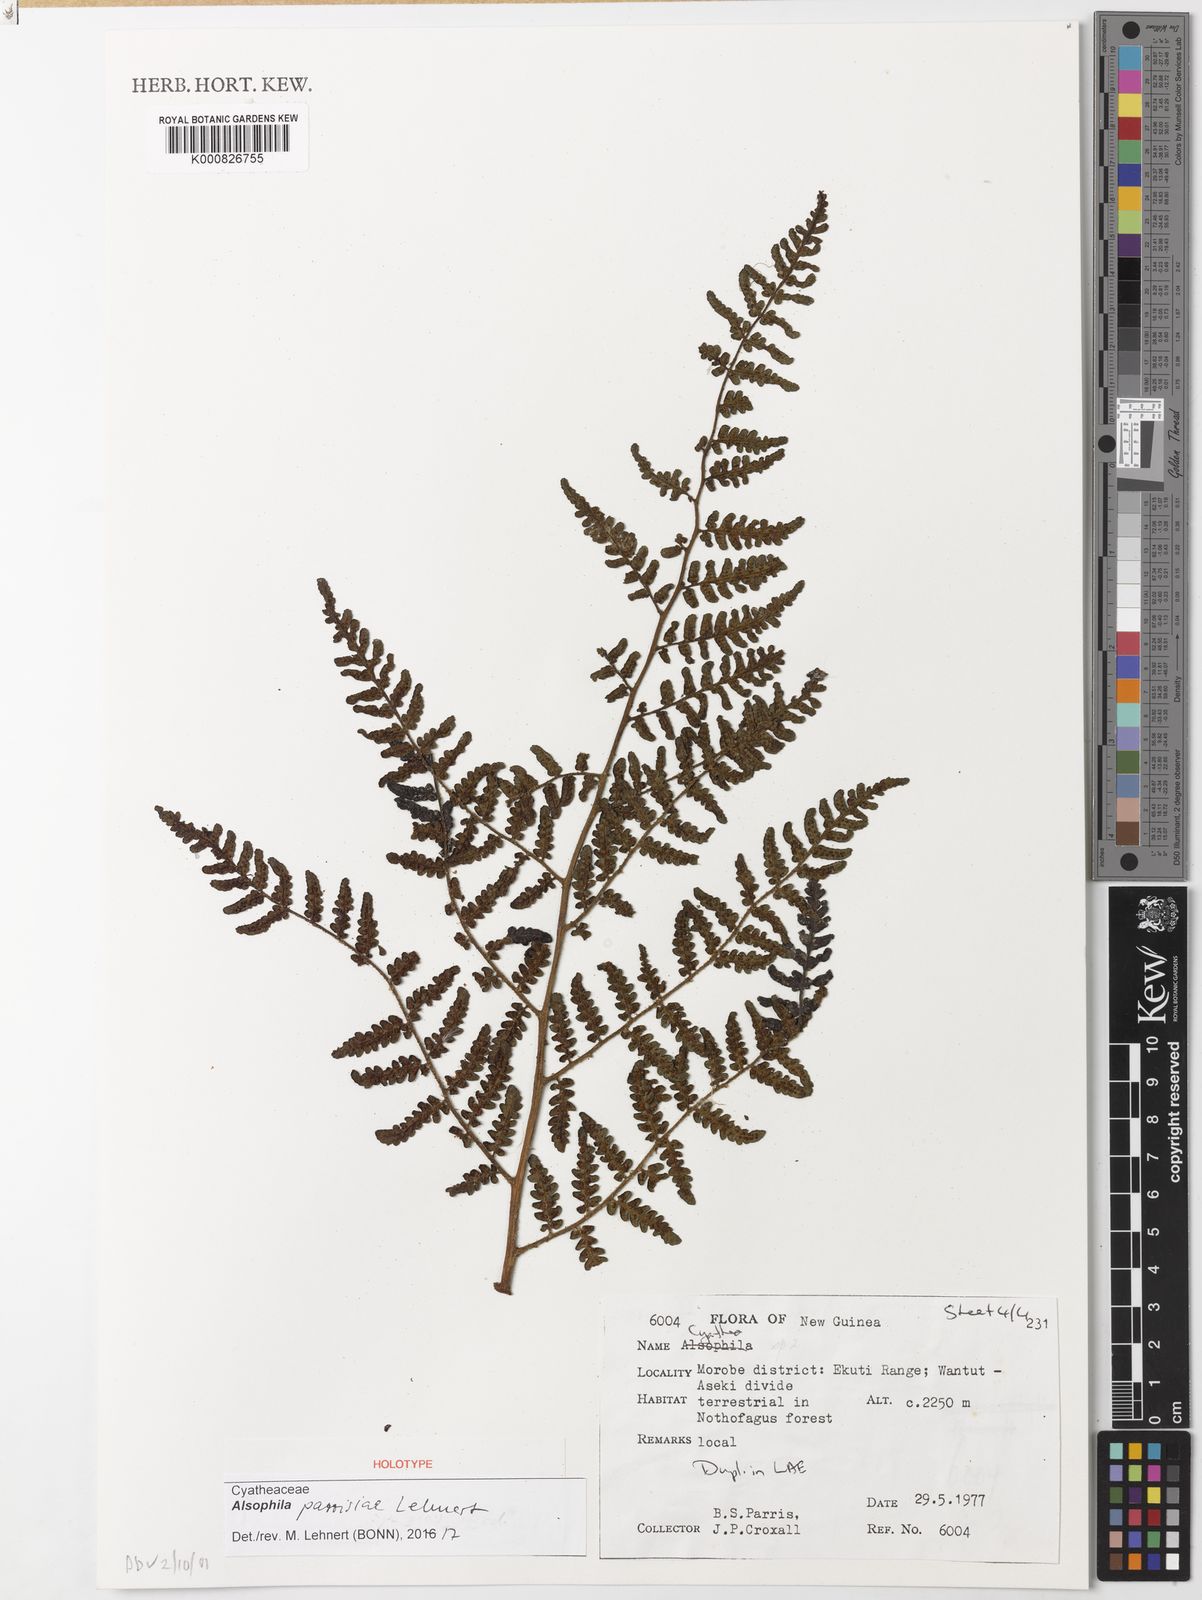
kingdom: Plantae
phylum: Tracheophyta
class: Polypodiopsida
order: Cyatheales
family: Cyatheaceae
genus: Alsophila
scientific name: Alsophila parrisiae
